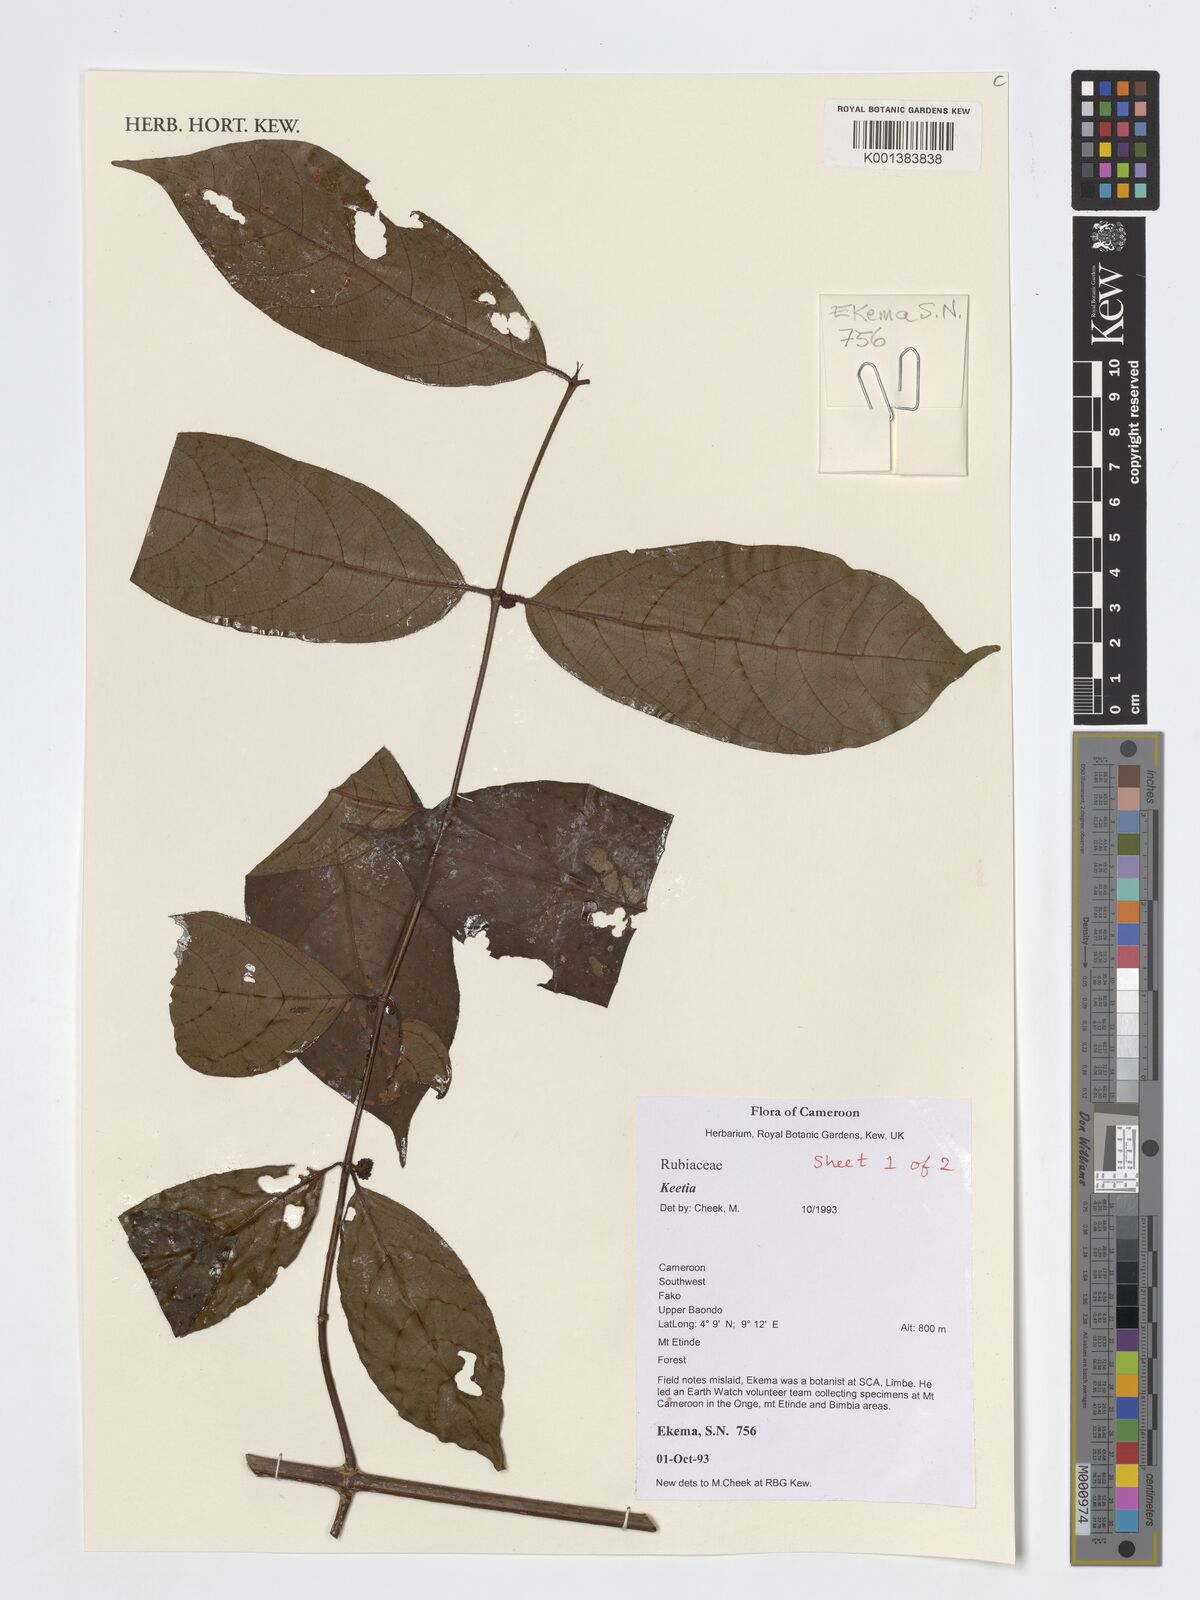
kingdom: Plantae
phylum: Tracheophyta
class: Magnoliopsida
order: Gentianales
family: Rubiaceae
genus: Keetia
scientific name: Keetia
